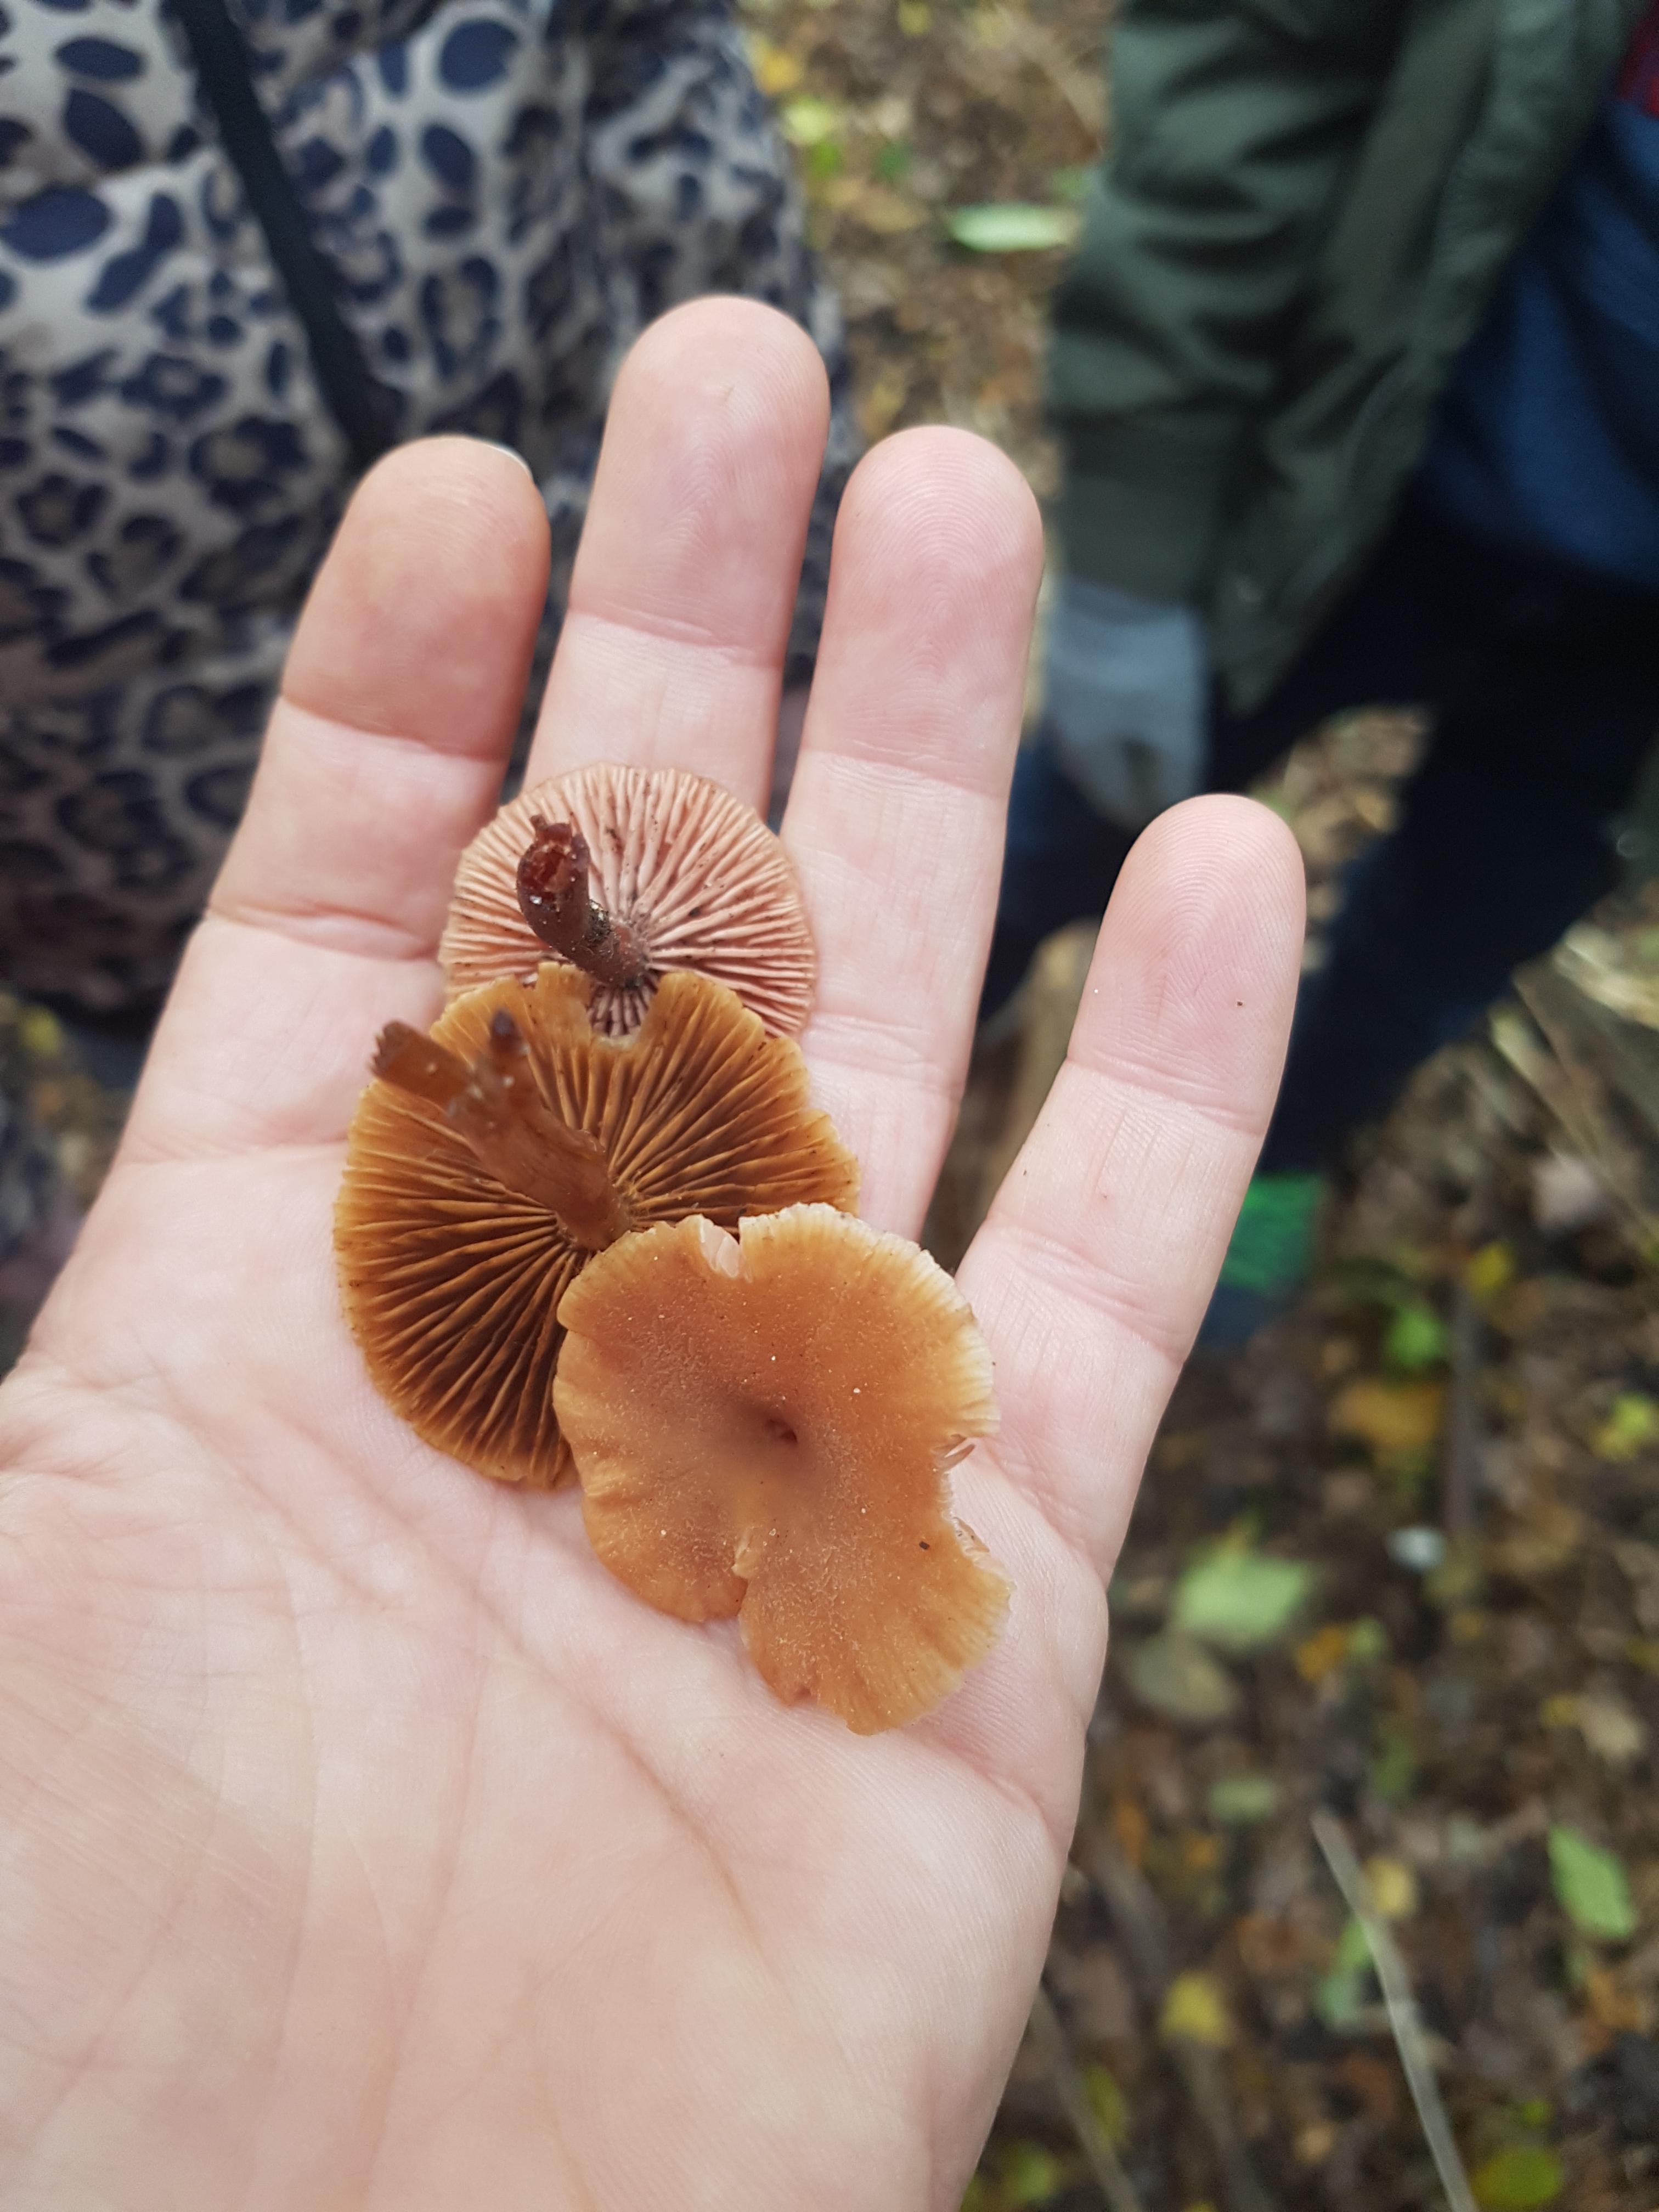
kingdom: Fungi
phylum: Basidiomycota
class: Agaricomycetes
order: Agaricales
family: Hydnangiaceae
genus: Laccaria
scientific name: Laccaria laccata
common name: rød ametysthat
